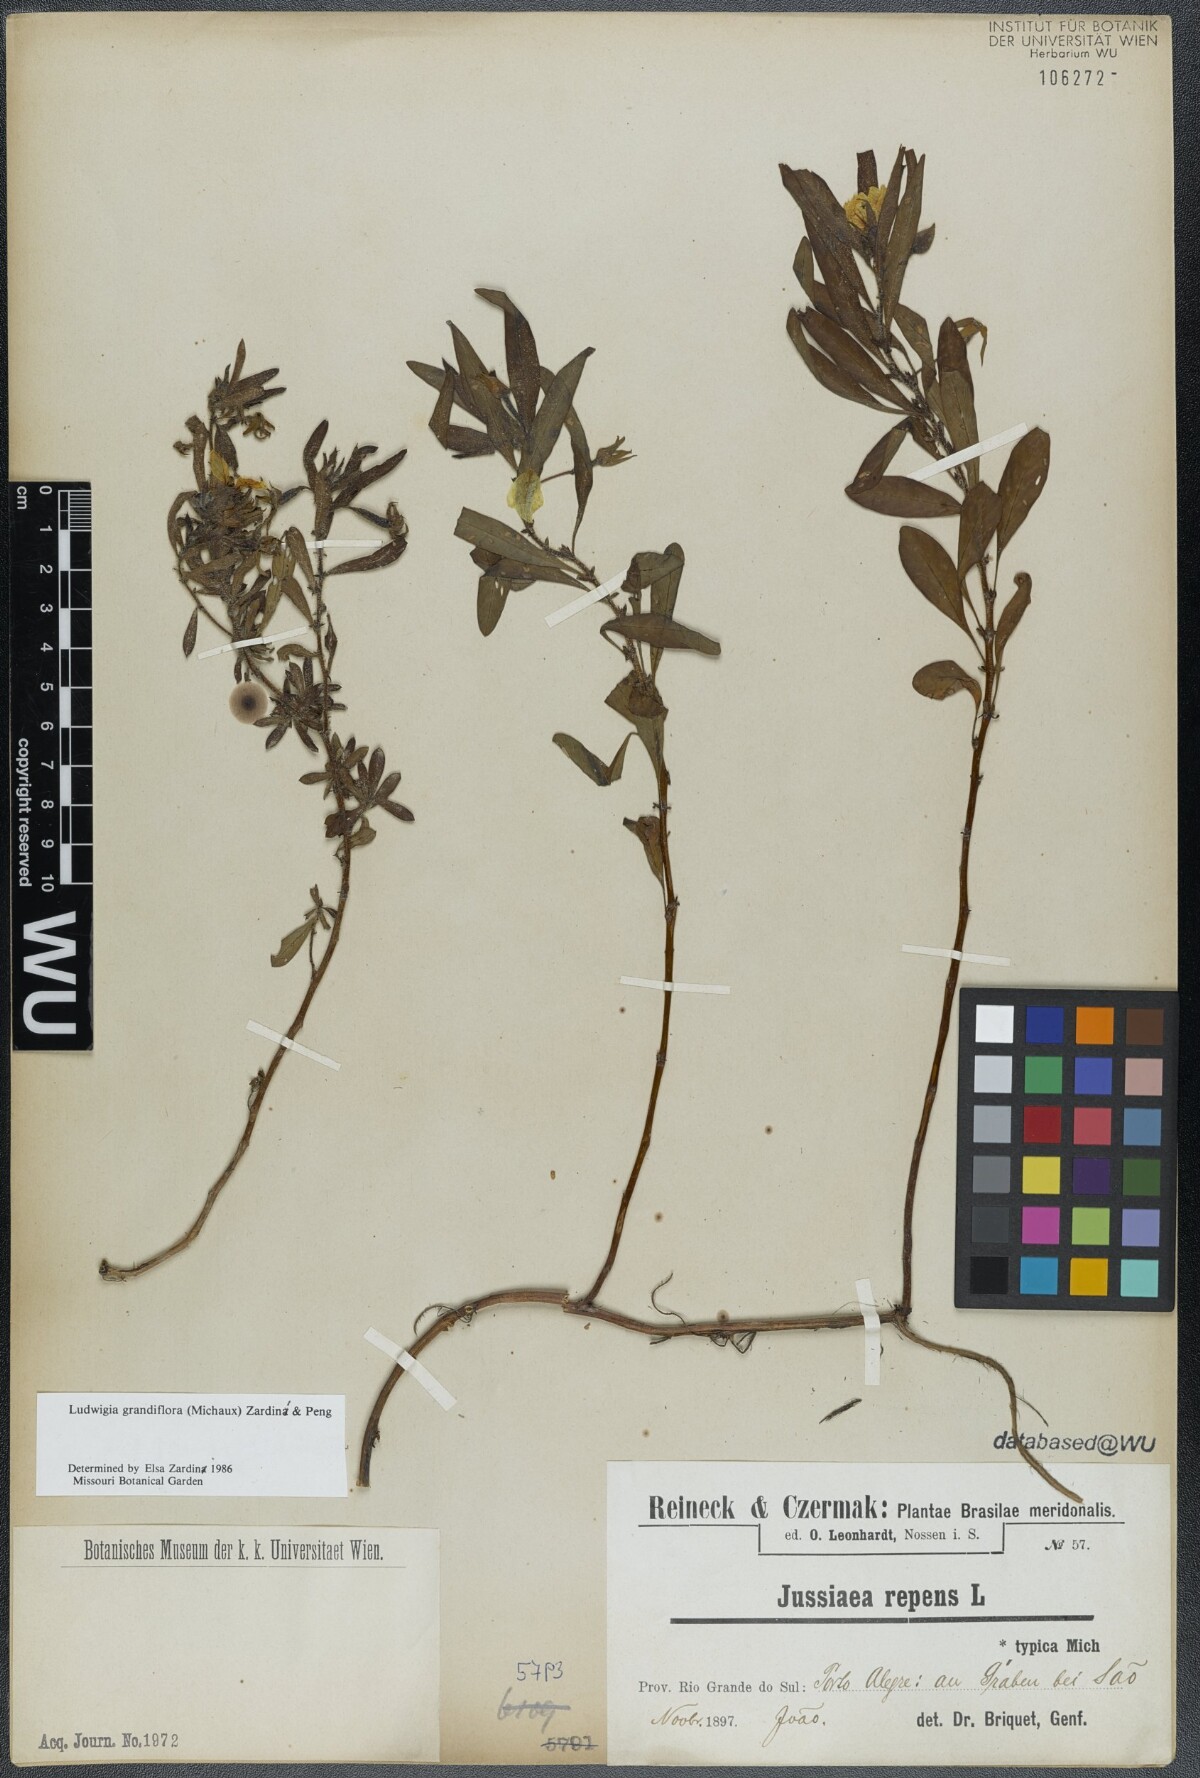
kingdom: Plantae
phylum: Tracheophyta
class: Magnoliopsida
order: Myrtales
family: Onagraceae
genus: Ludwigia
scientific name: Ludwigia grandiflora
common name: Water primrose
